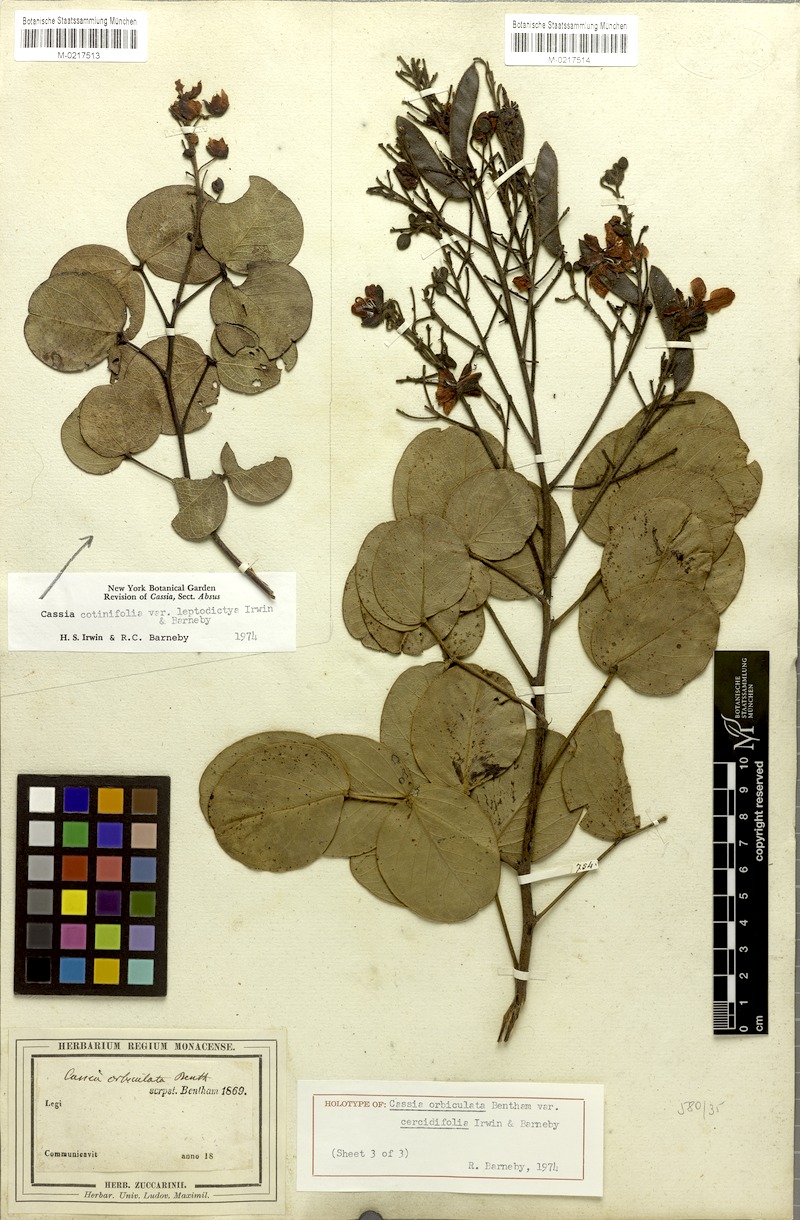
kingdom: Plantae
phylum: Tracheophyta
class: Magnoliopsida
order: Fabales
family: Fabaceae
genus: Chamaecrista
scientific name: Chamaecrista cercidifolia
